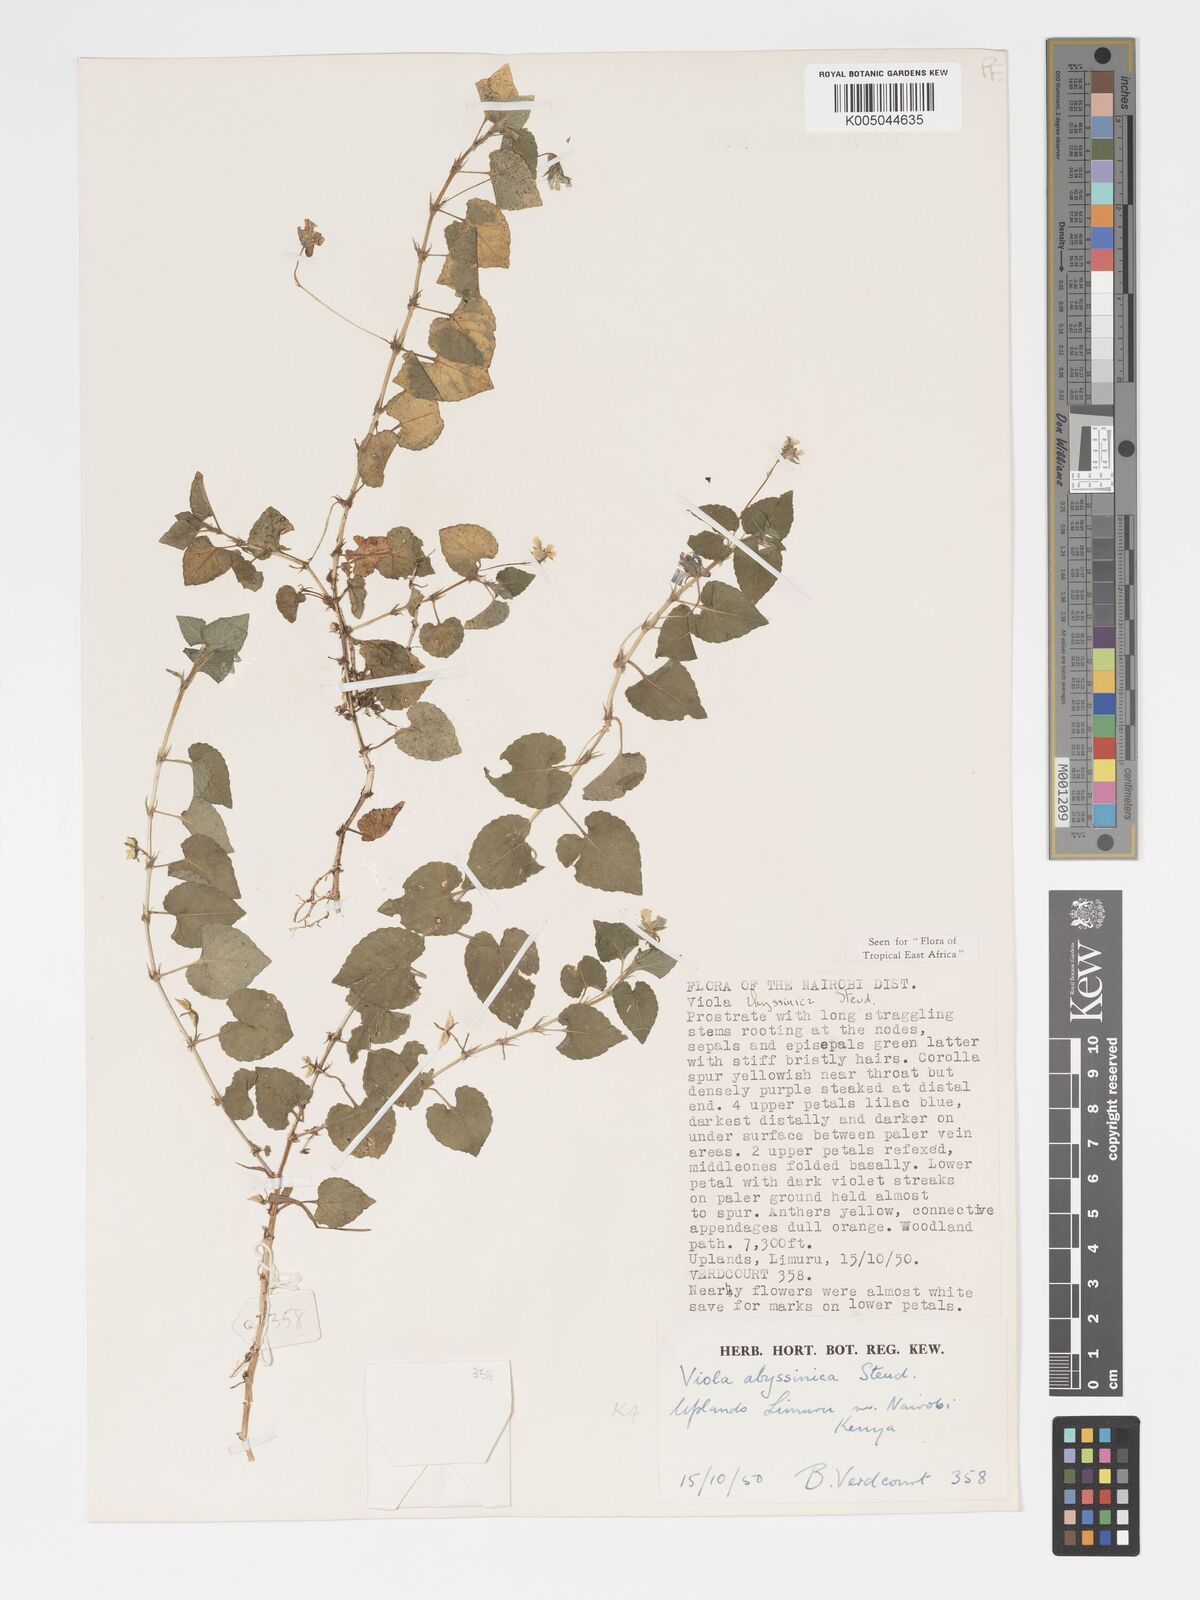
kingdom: Plantae
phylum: Tracheophyta
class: Magnoliopsida
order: Malpighiales
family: Violaceae
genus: Viola
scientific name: Viola abyssinica
